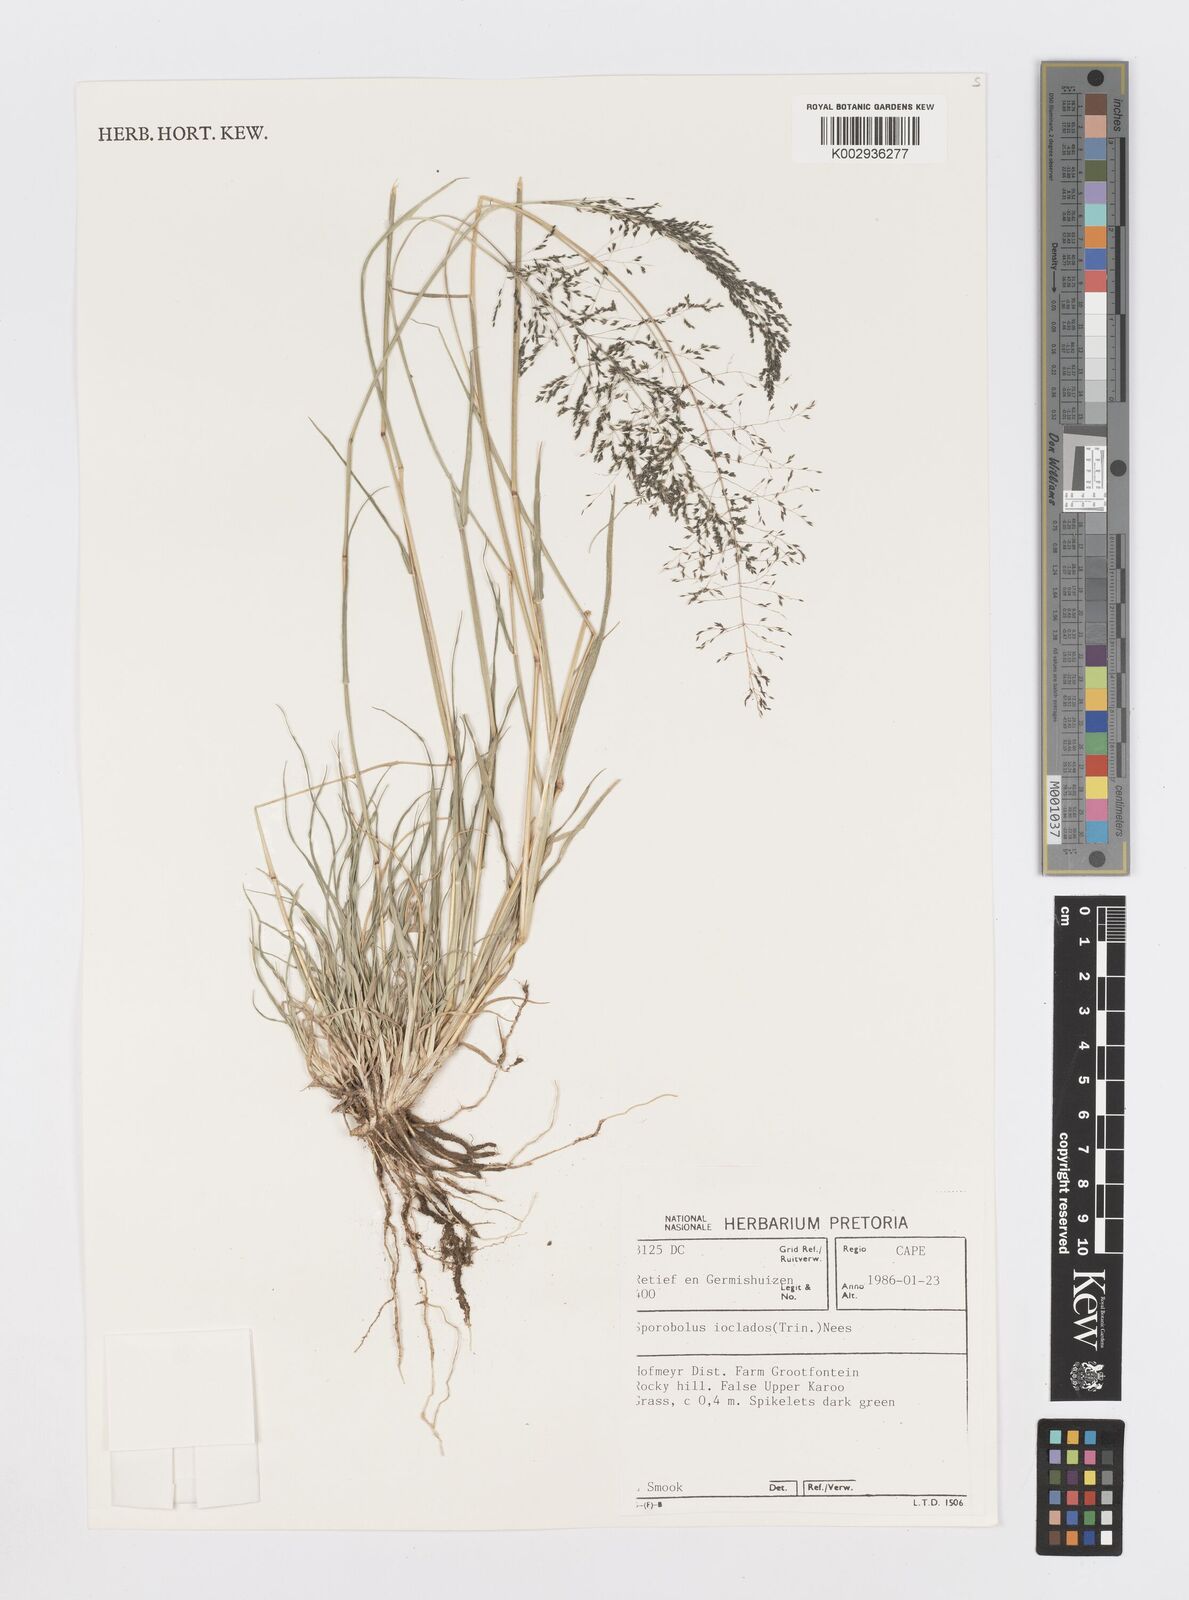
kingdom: Plantae
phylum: Tracheophyta
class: Liliopsida
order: Poales
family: Poaceae
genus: Sporobolus
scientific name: Sporobolus ioclados
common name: Pan dropseed
